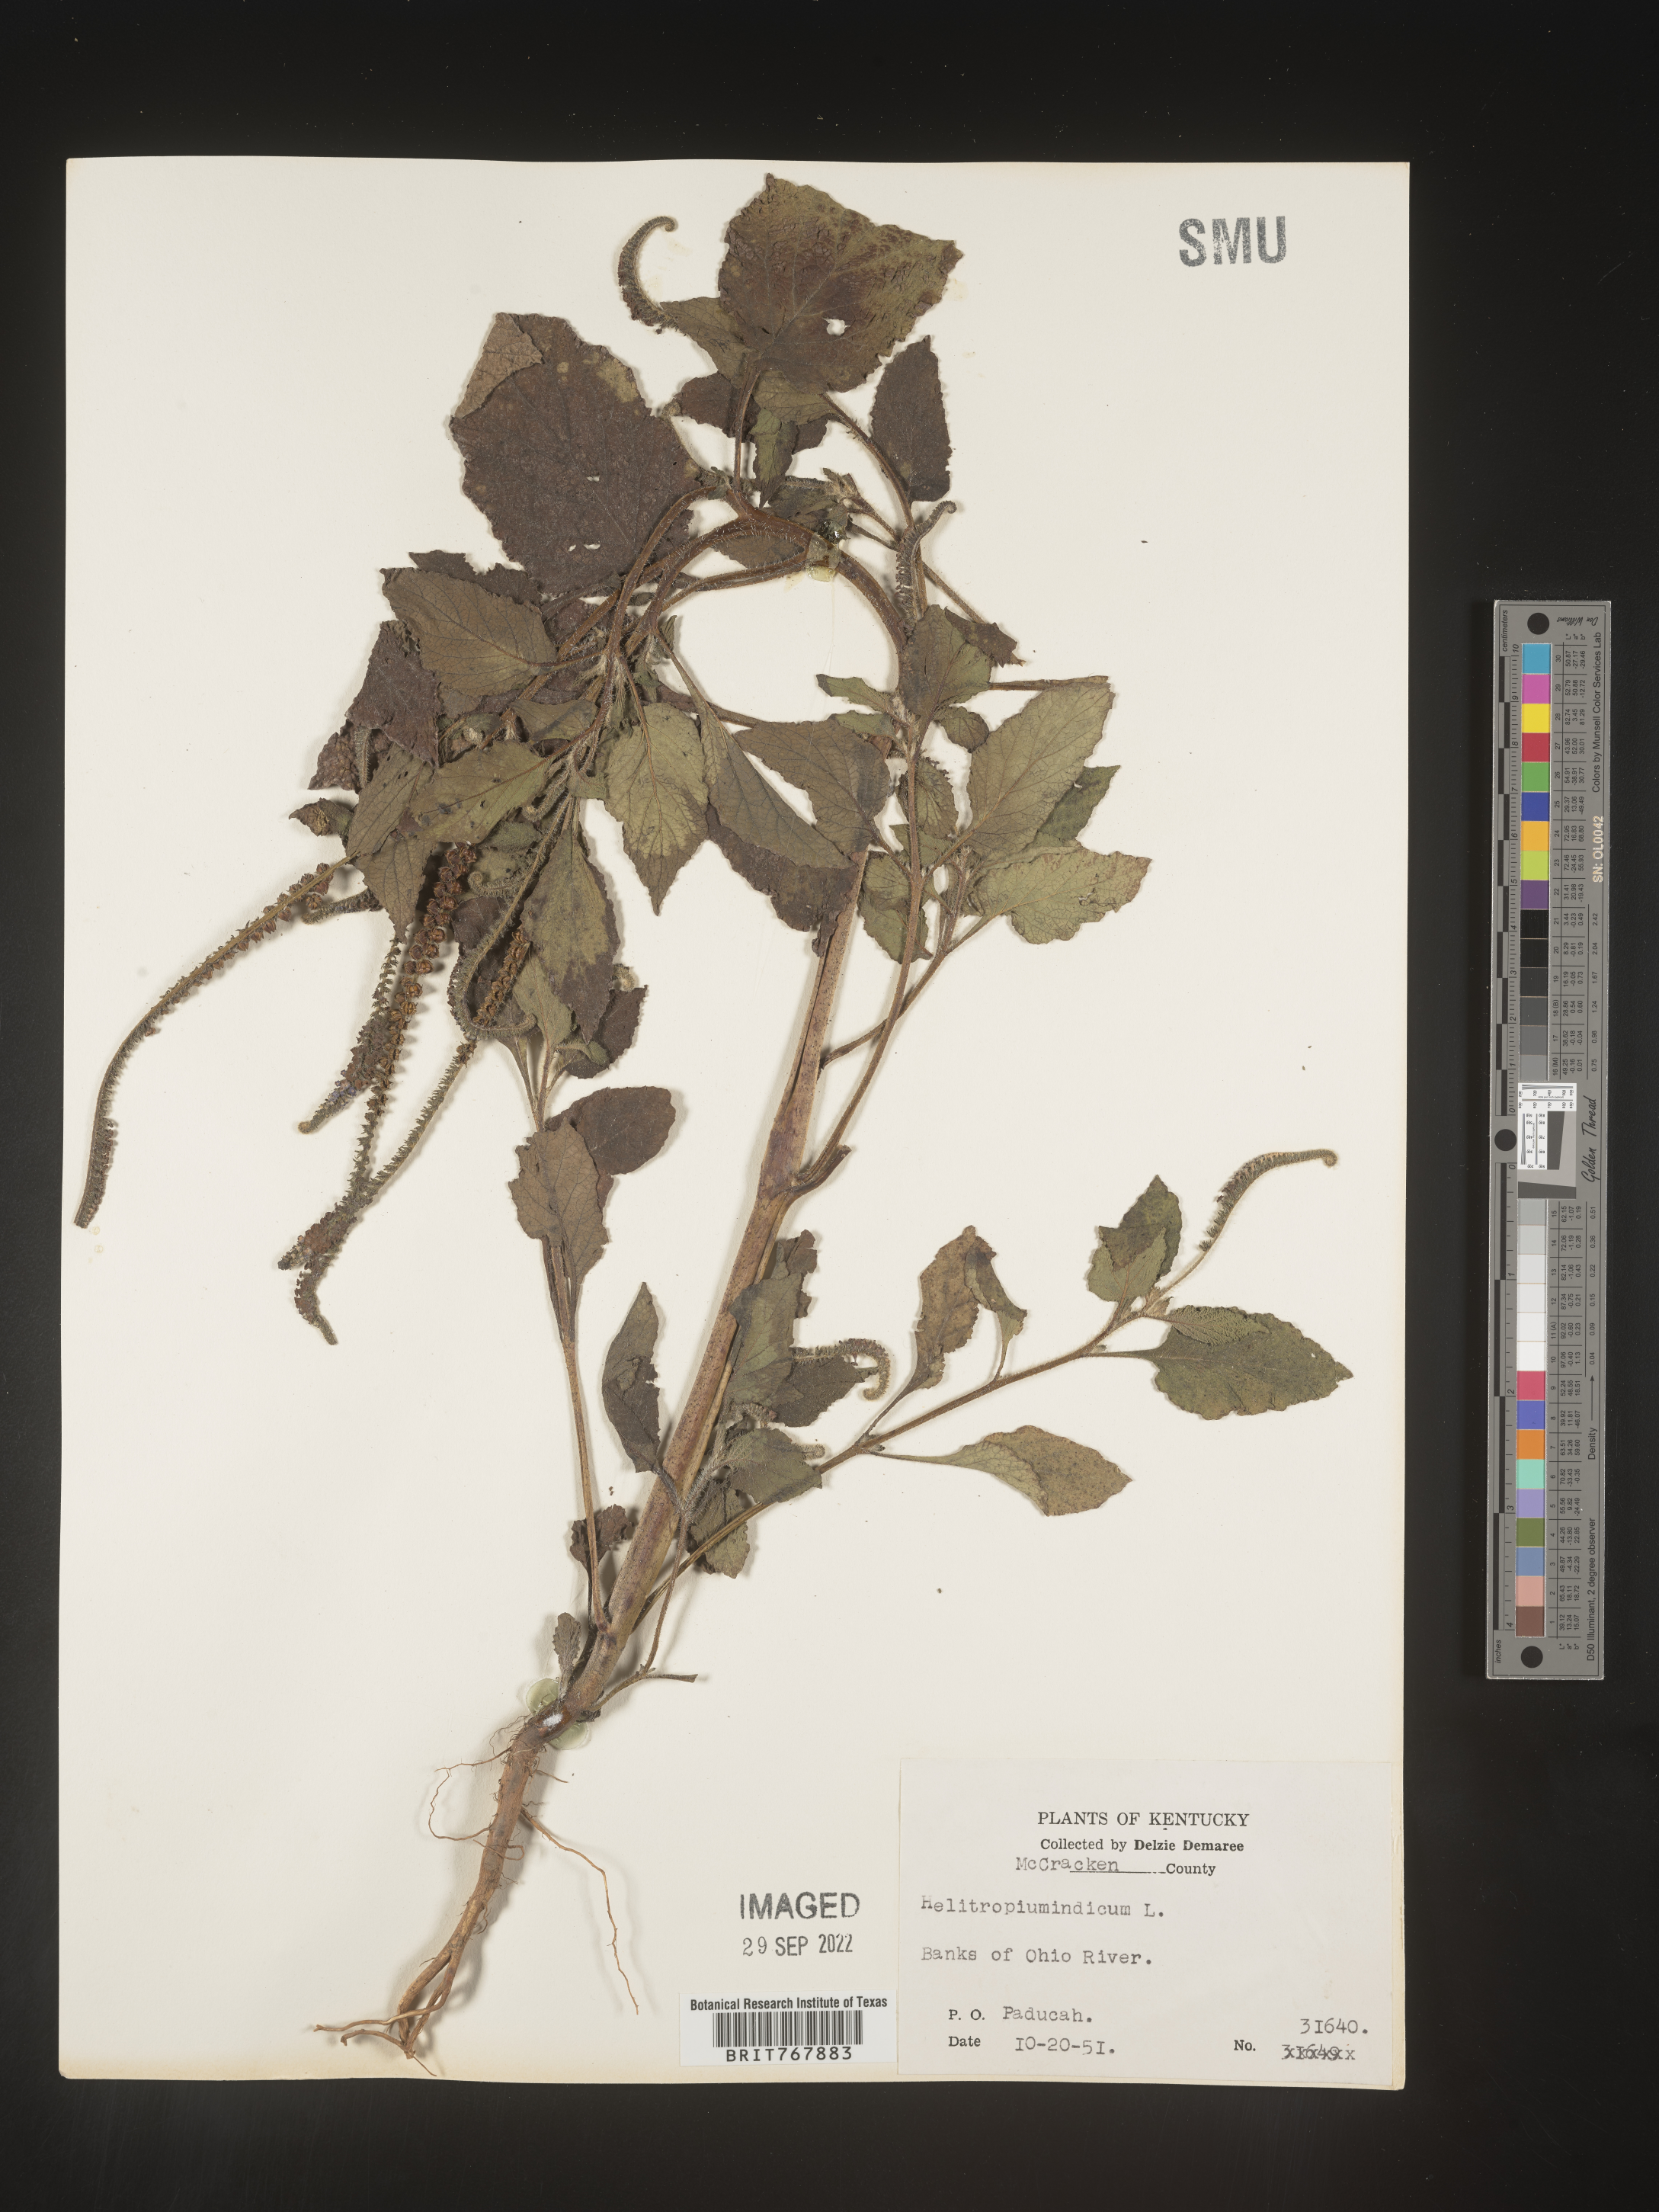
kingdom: Plantae
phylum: Tracheophyta
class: Magnoliopsida
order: Boraginales
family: Heliotropiaceae
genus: Heliotropium
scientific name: Heliotropium indicum
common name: Indian heliotrope
